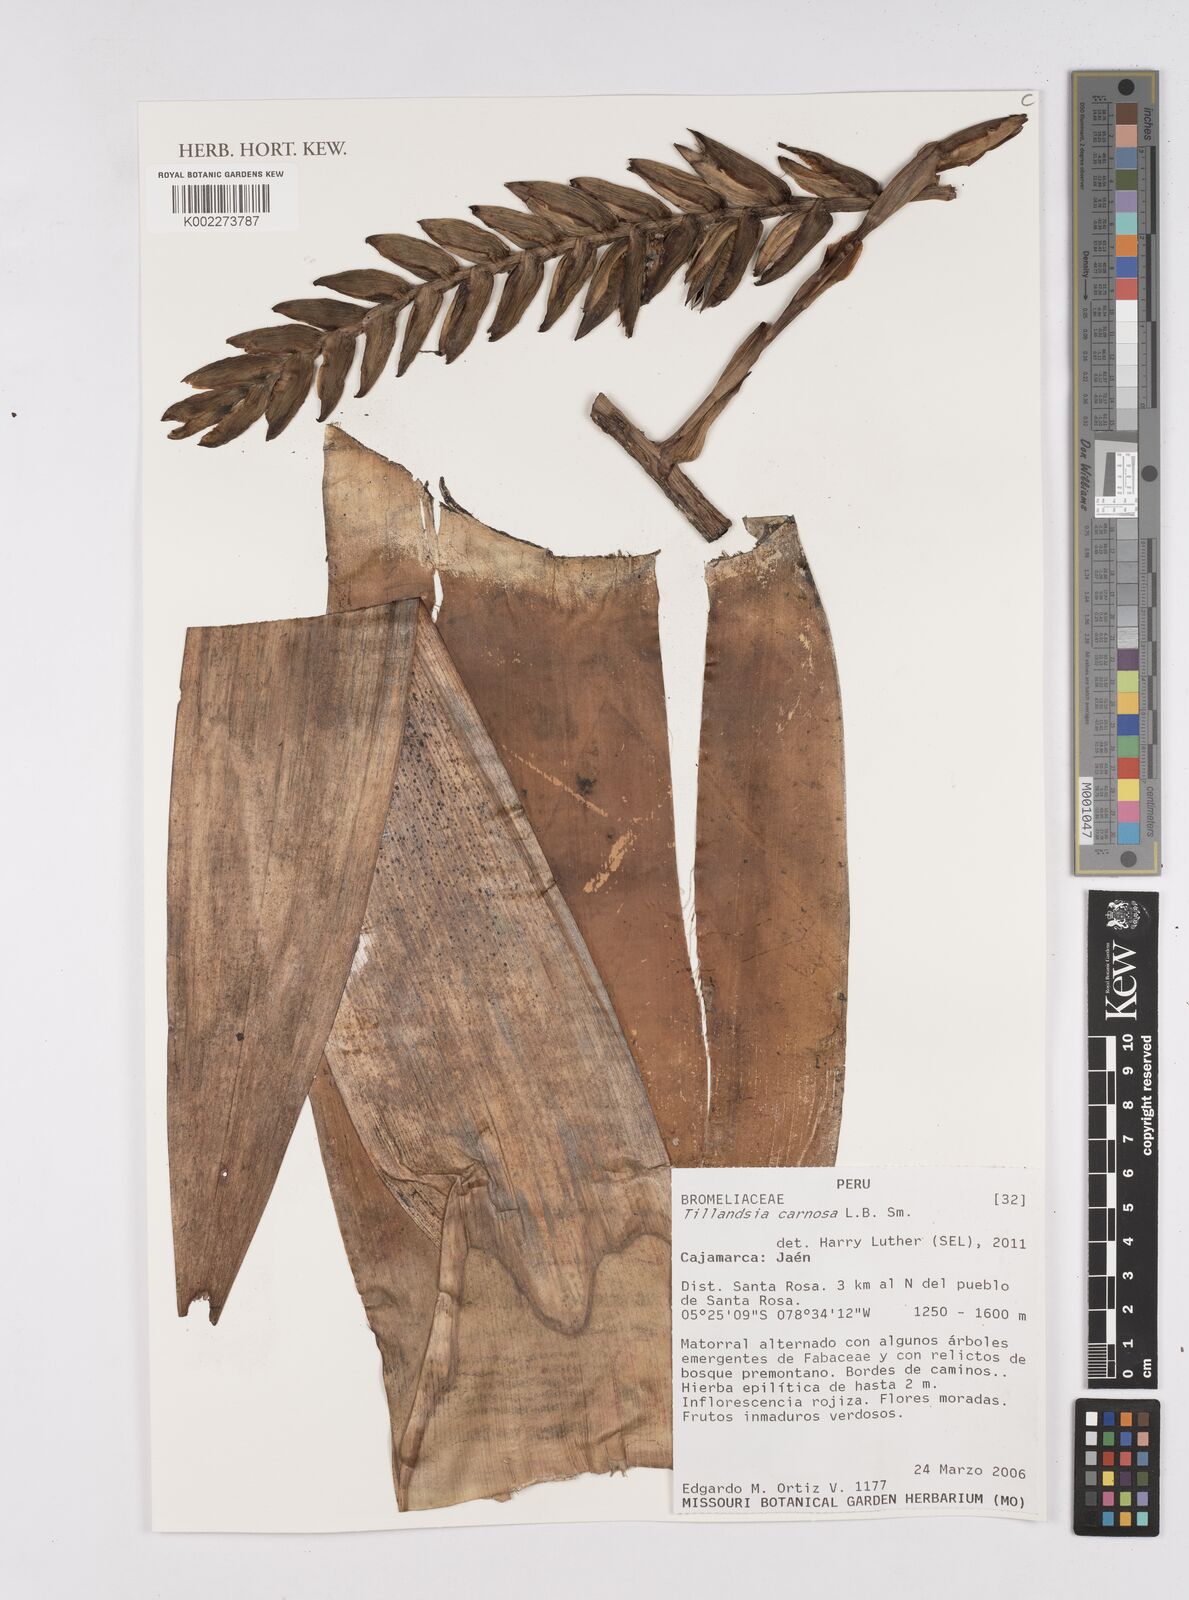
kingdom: Plantae
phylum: Tracheophyta
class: Liliopsida
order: Poales
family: Bromeliaceae
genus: Tillandsia
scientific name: Tillandsia carnosa
